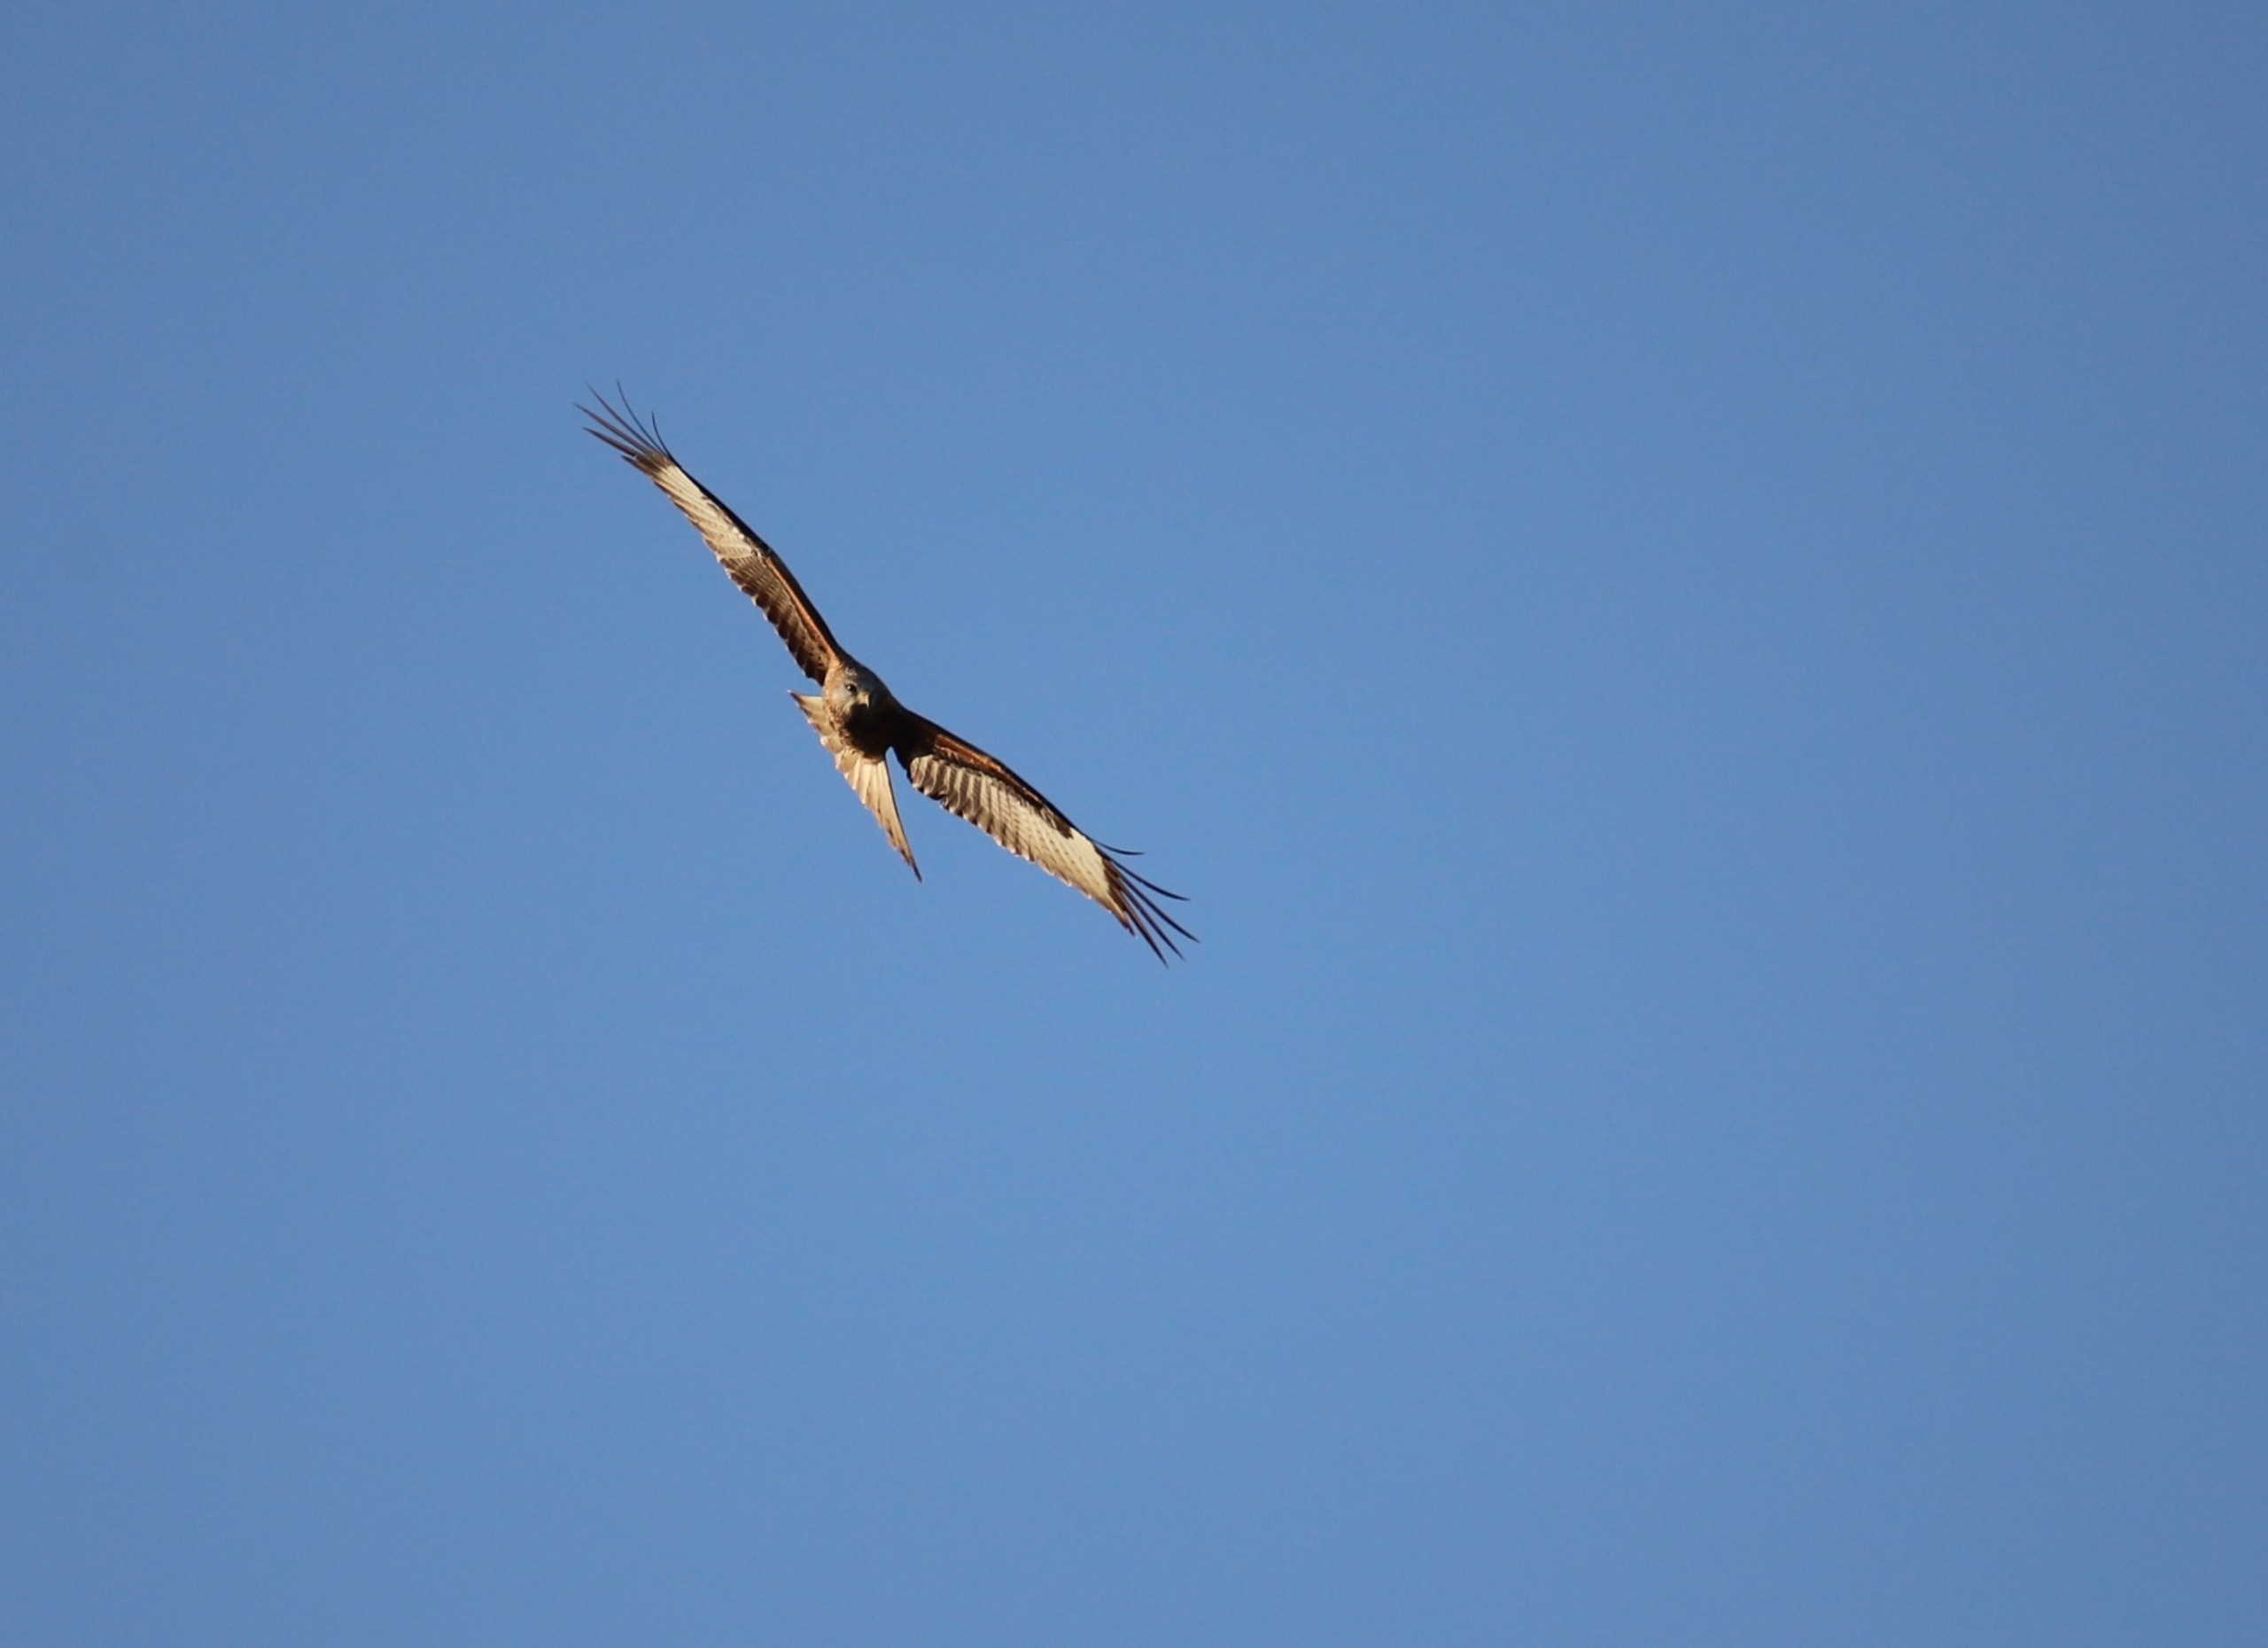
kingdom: Animalia
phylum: Chordata
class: Aves
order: Accipitriformes
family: Accipitridae
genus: Milvus
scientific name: Milvus milvus
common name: Rød glente
